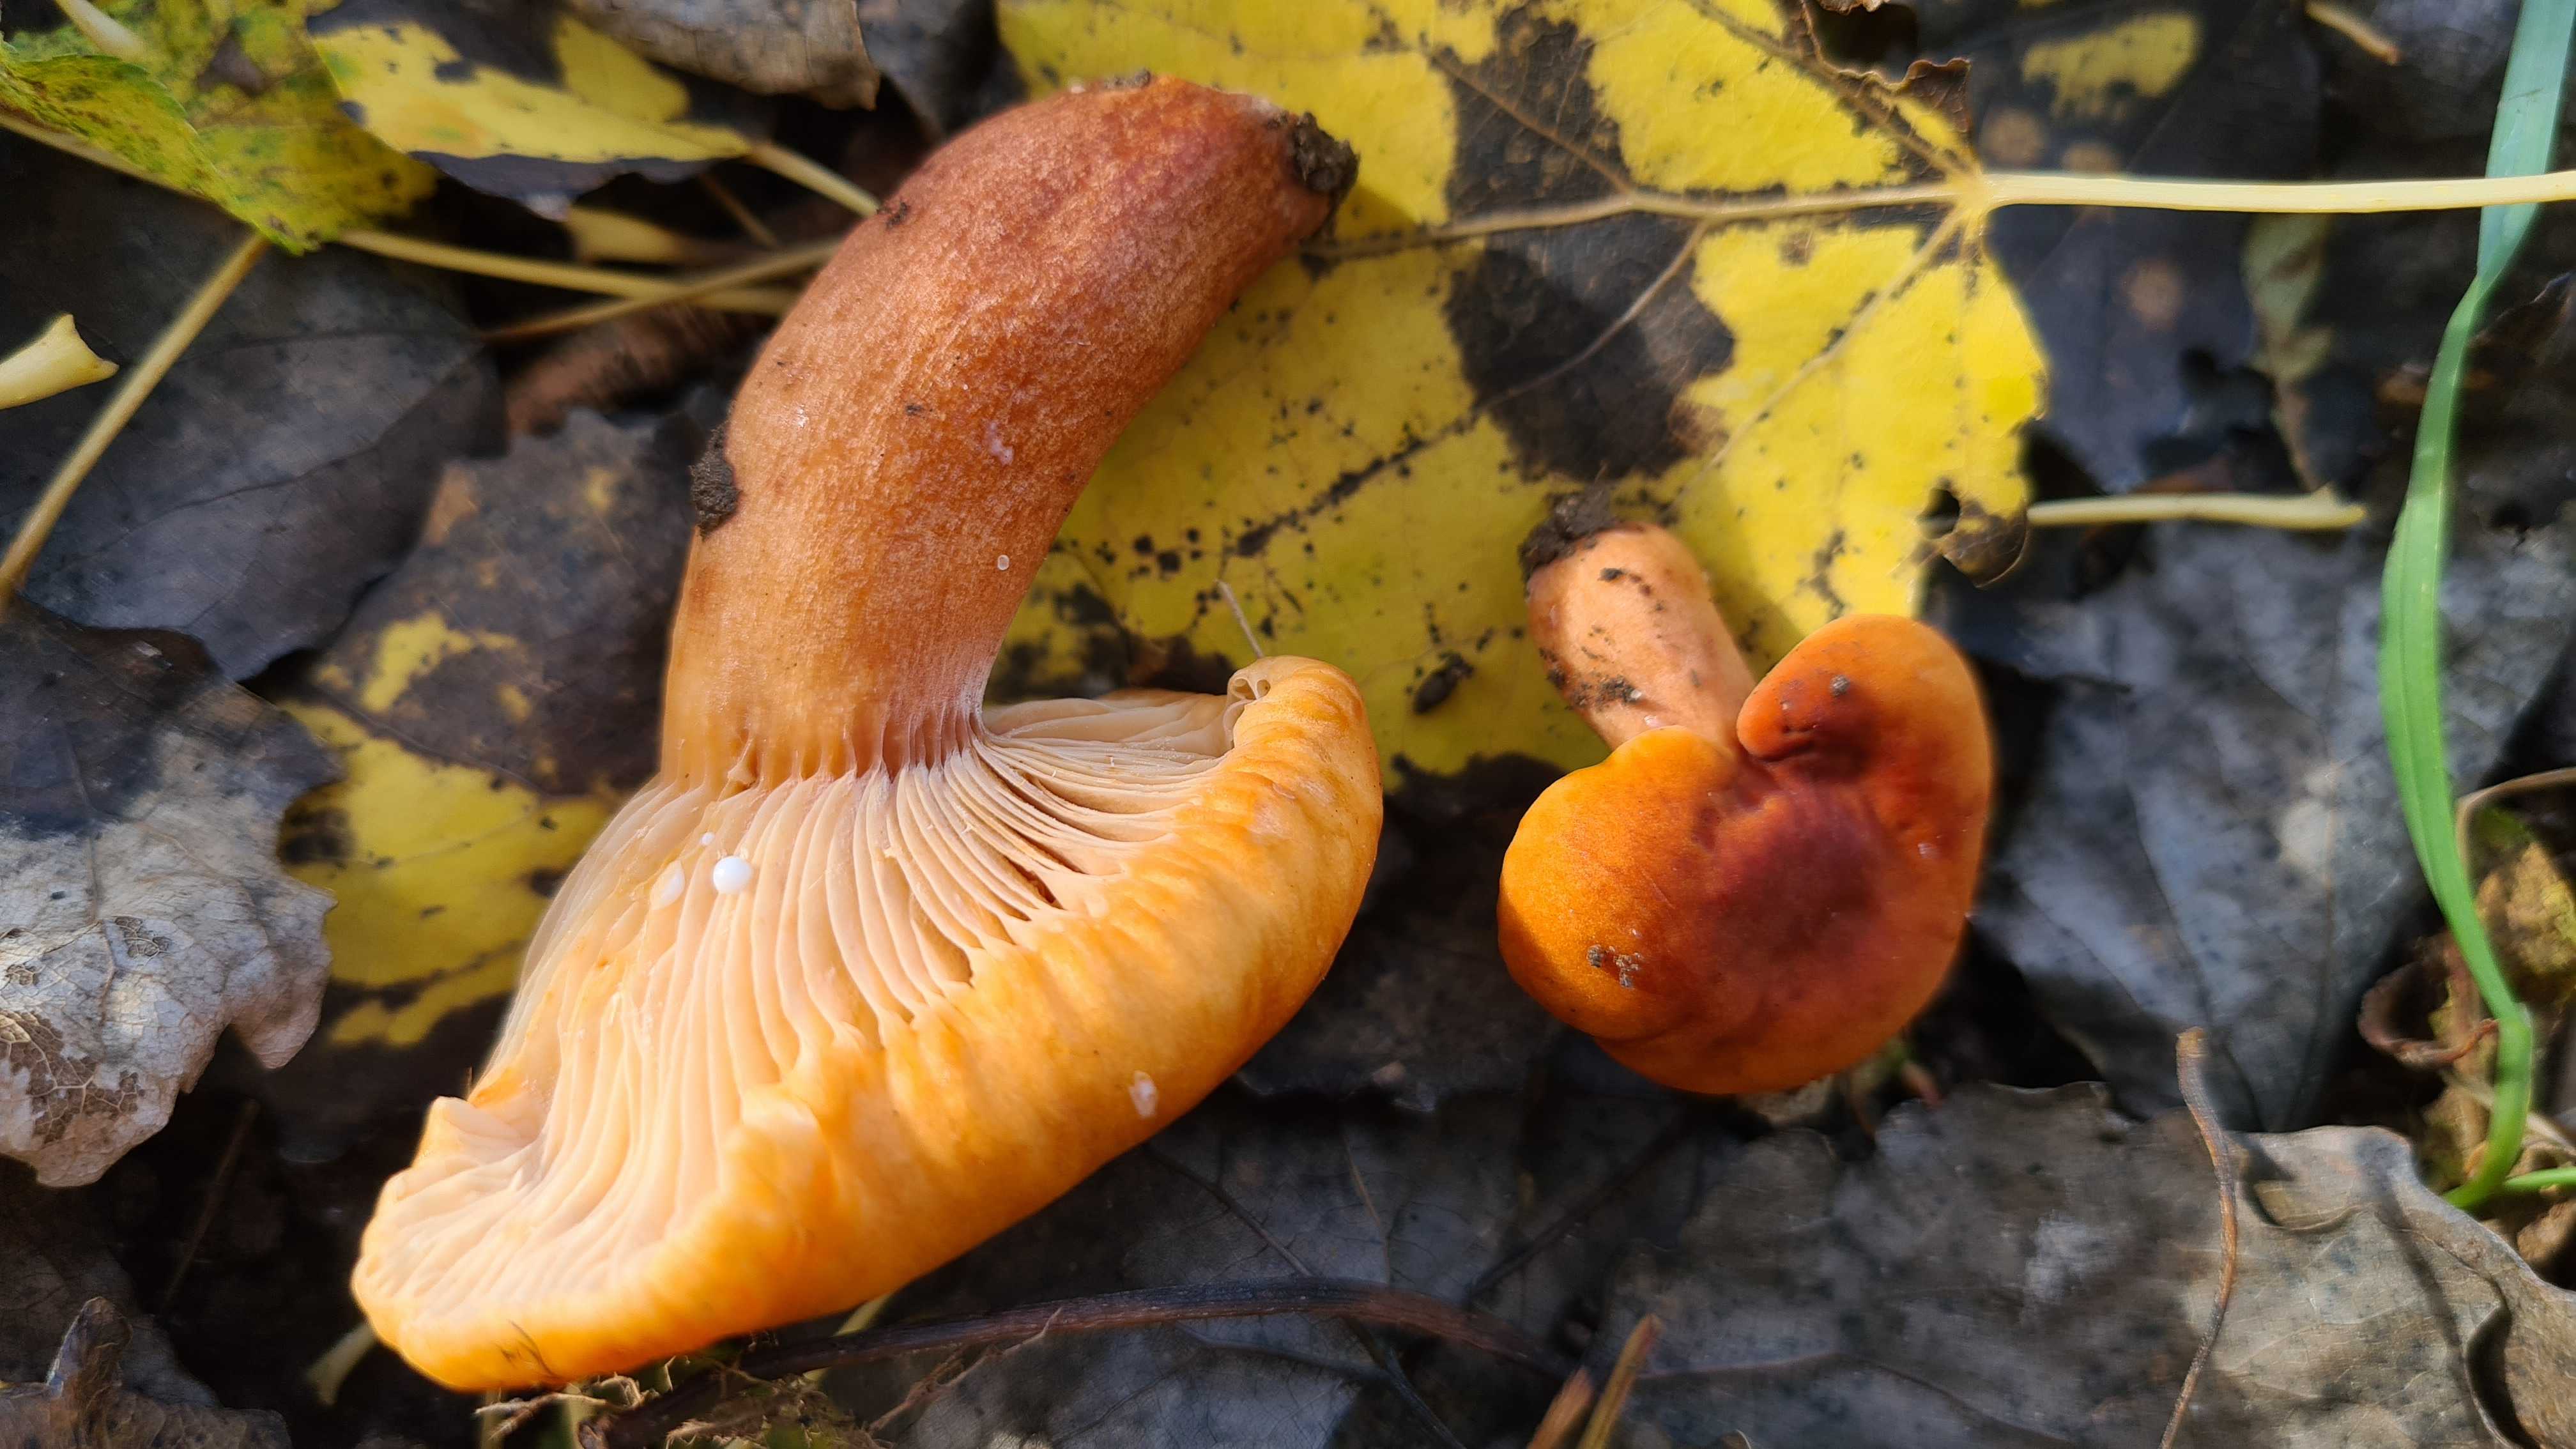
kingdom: Fungi
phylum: Basidiomycota
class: Agaricomycetes
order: Russulales
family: Russulaceae
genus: Lactarius
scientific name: Lactarius fulvissimus
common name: ræve-mælkehat
